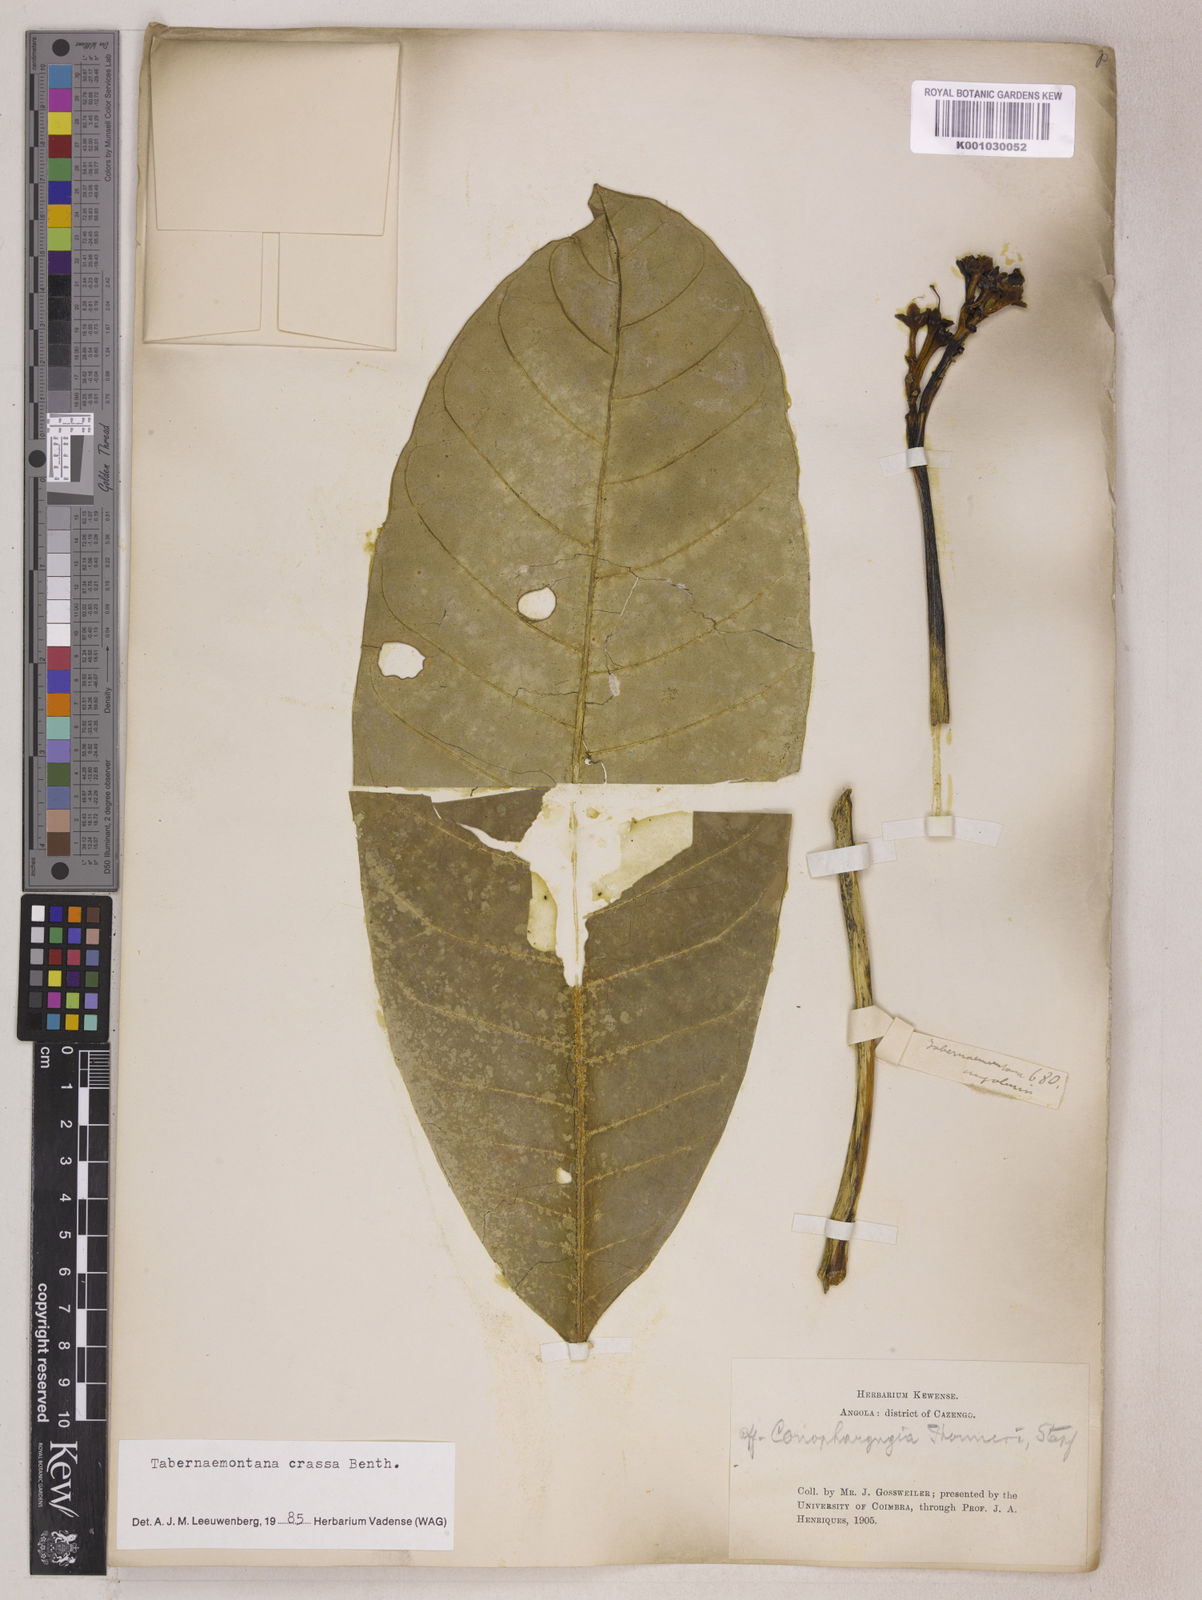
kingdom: Plantae
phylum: Tracheophyta
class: Magnoliopsida
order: Gentianales
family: Apocynaceae
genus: Tabernaemontana
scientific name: Tabernaemontana crassa
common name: Adam's-apple-flower
